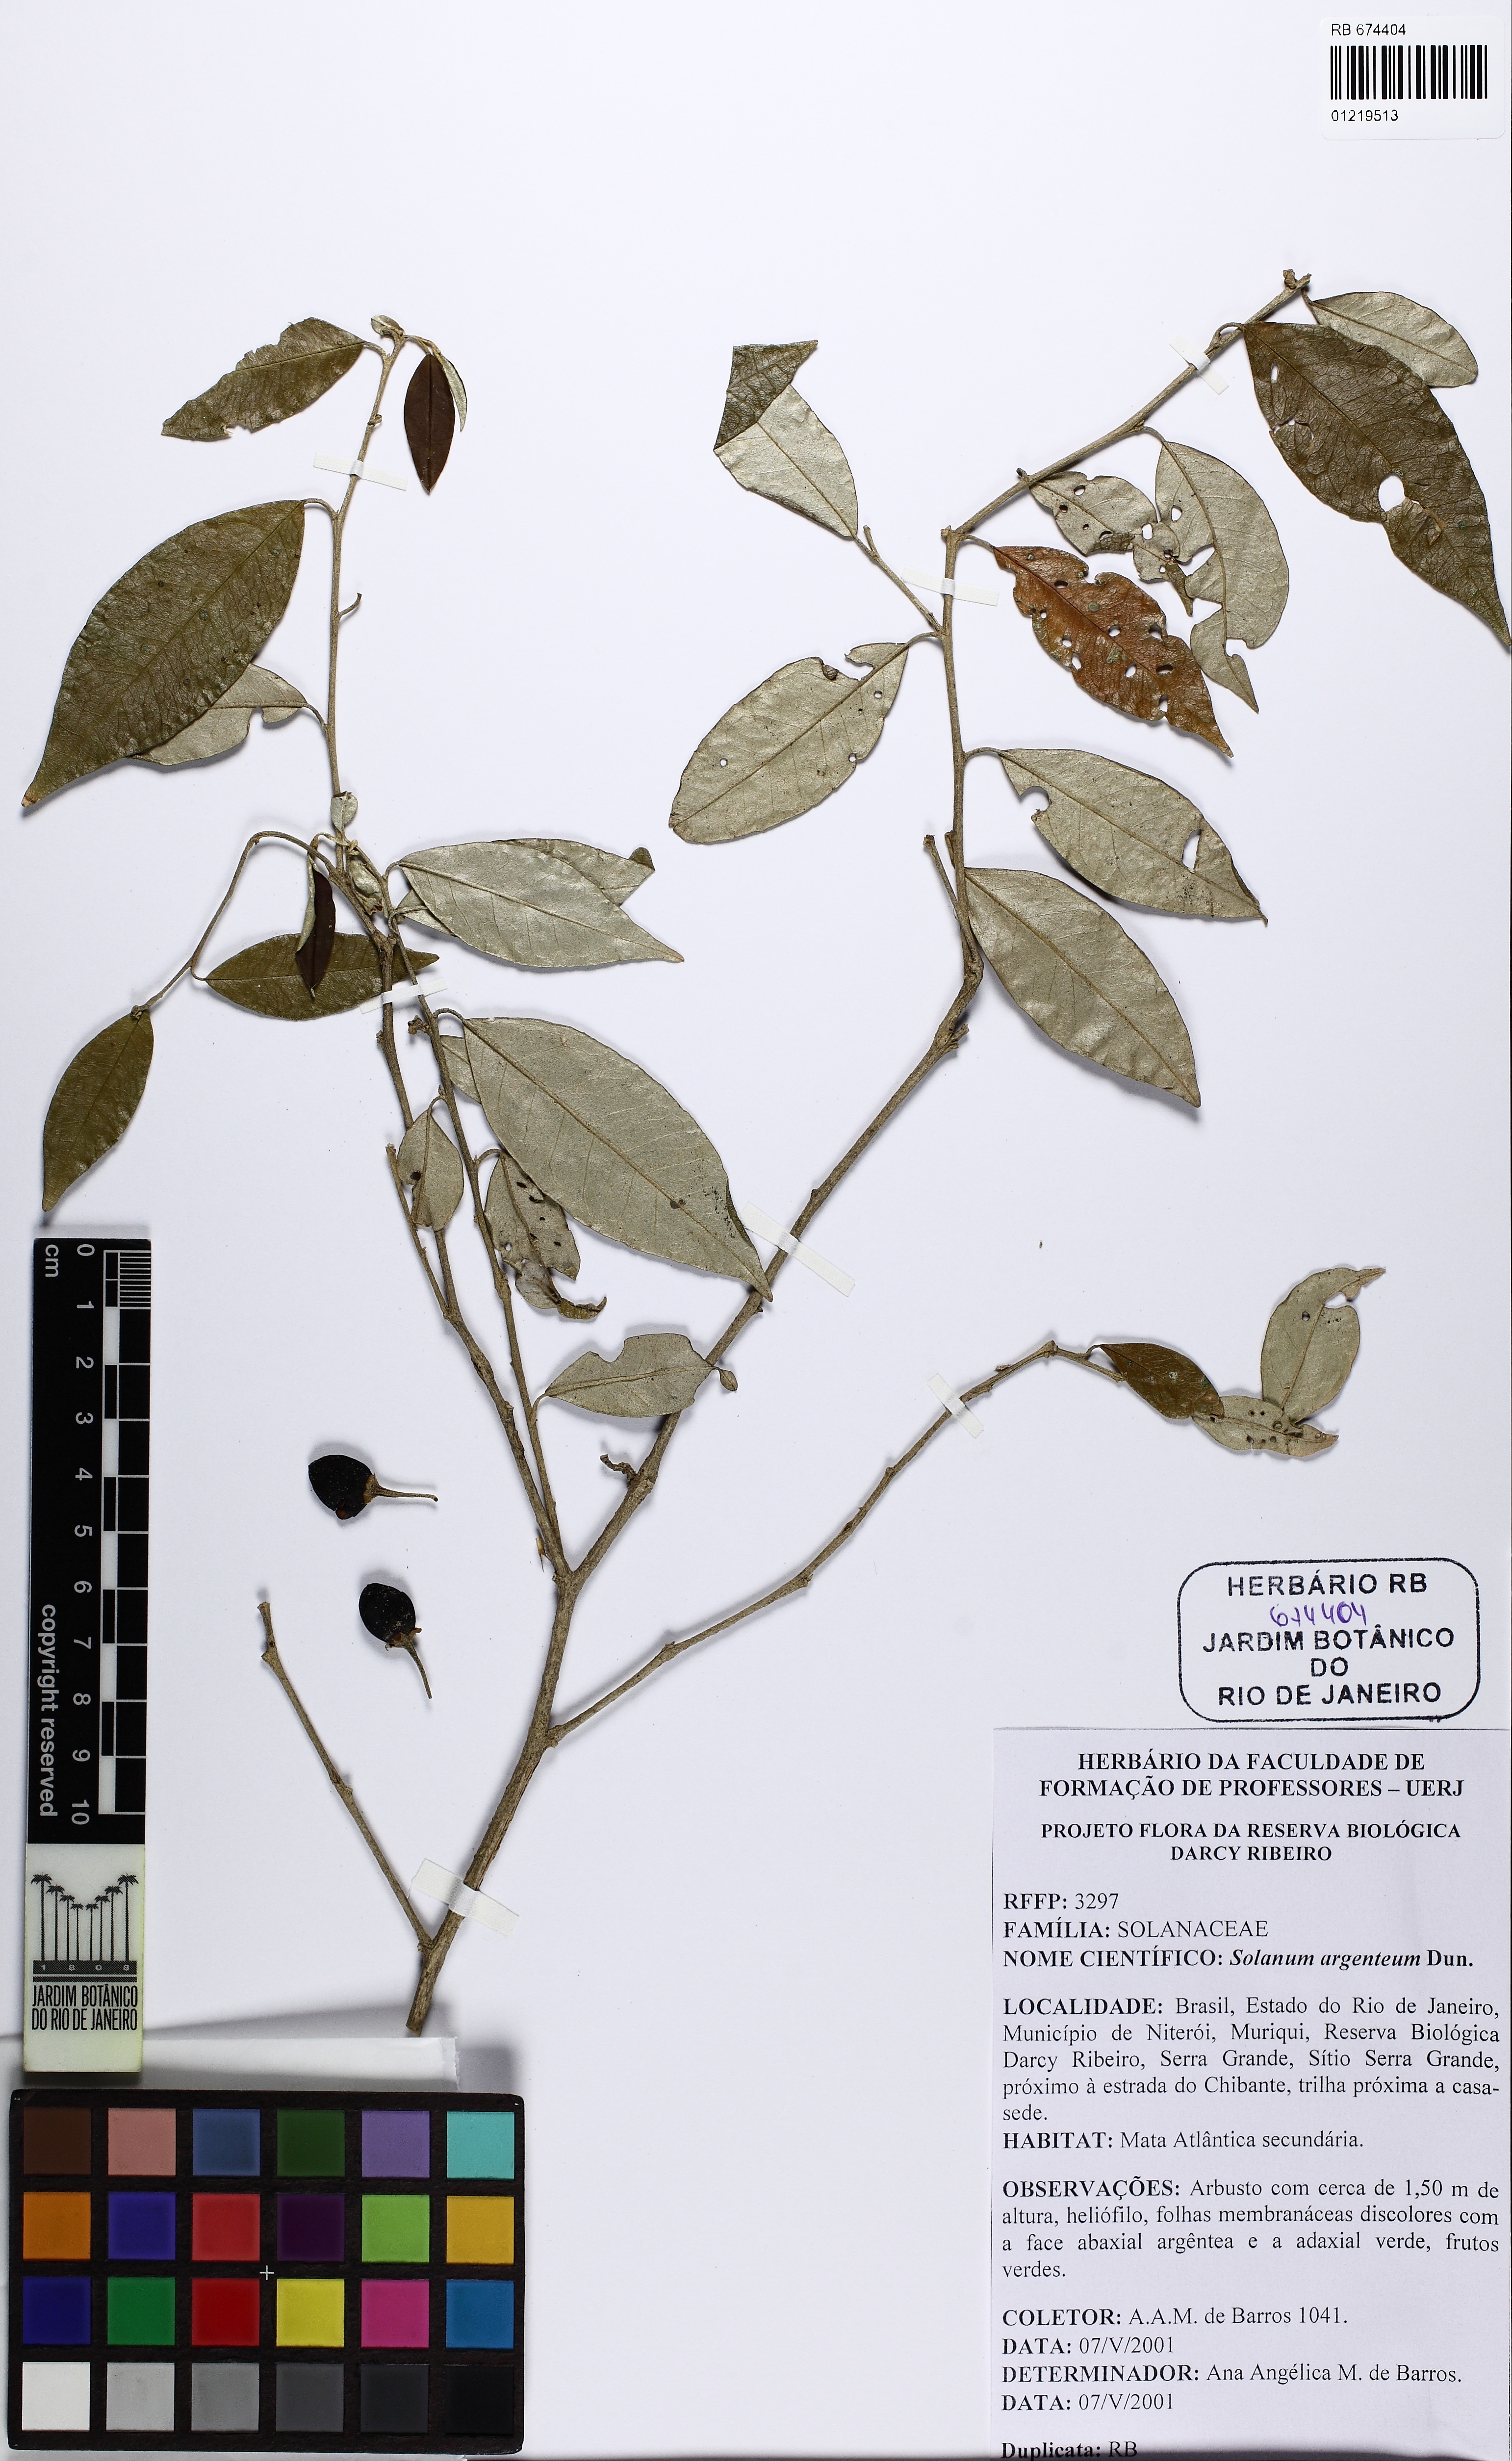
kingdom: Plantae
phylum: Tracheophyta
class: Magnoliopsida
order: Solanales
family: Solanaceae
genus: Solanum
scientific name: Solanum swartzianum
